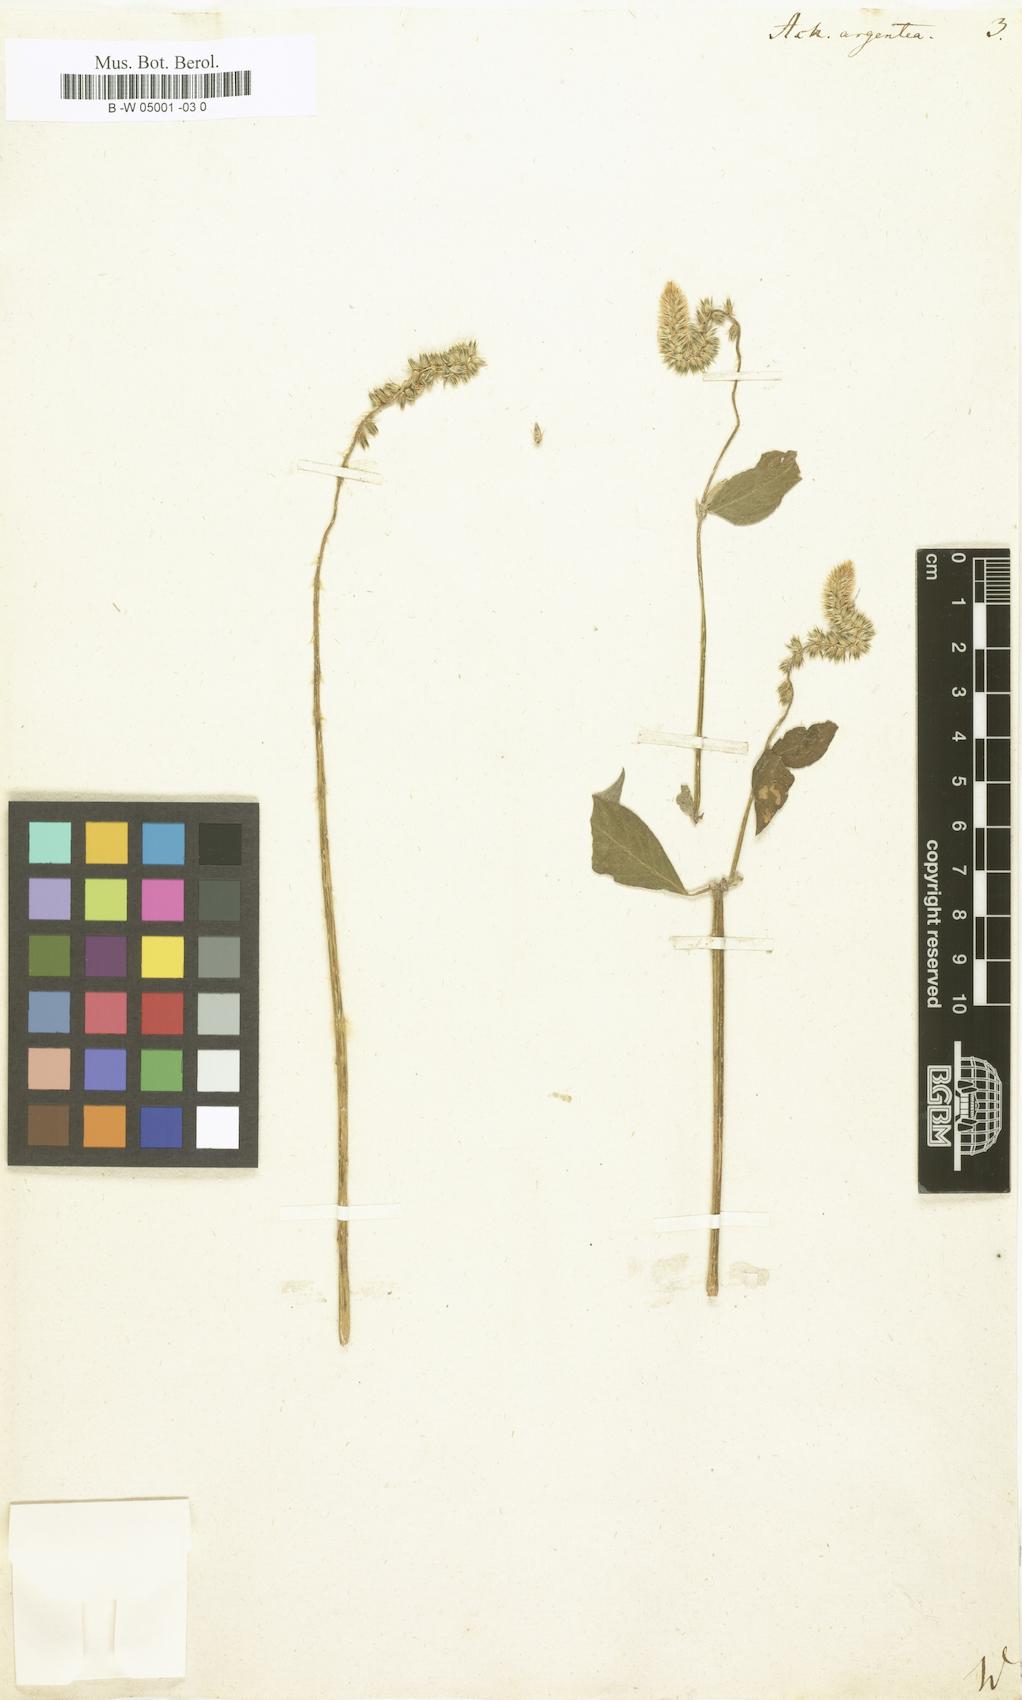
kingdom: Plantae
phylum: Tracheophyta
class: Magnoliopsida
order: Caryophyllales
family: Amaranthaceae
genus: Achyranthes
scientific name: Achyranthes
